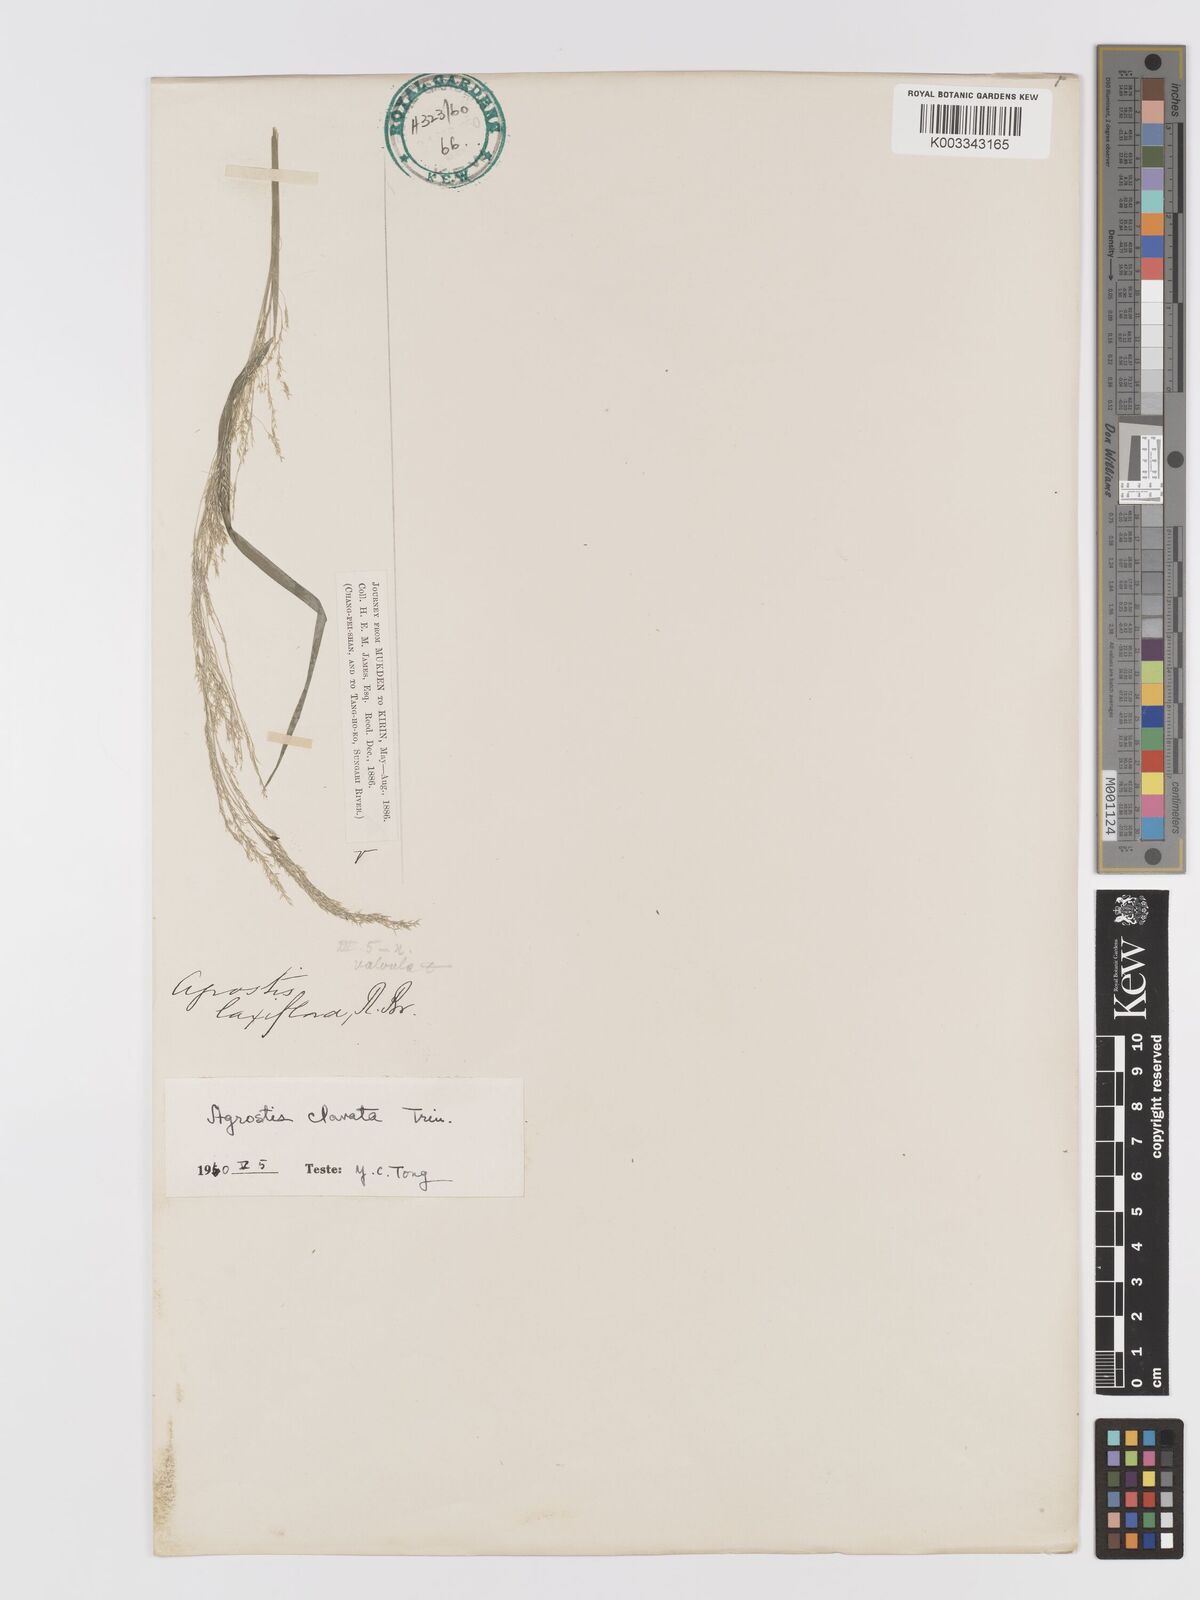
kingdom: Plantae
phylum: Tracheophyta
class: Liliopsida
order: Poales
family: Poaceae
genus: Agrostis
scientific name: Agrostis clavata
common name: Clavate bent
